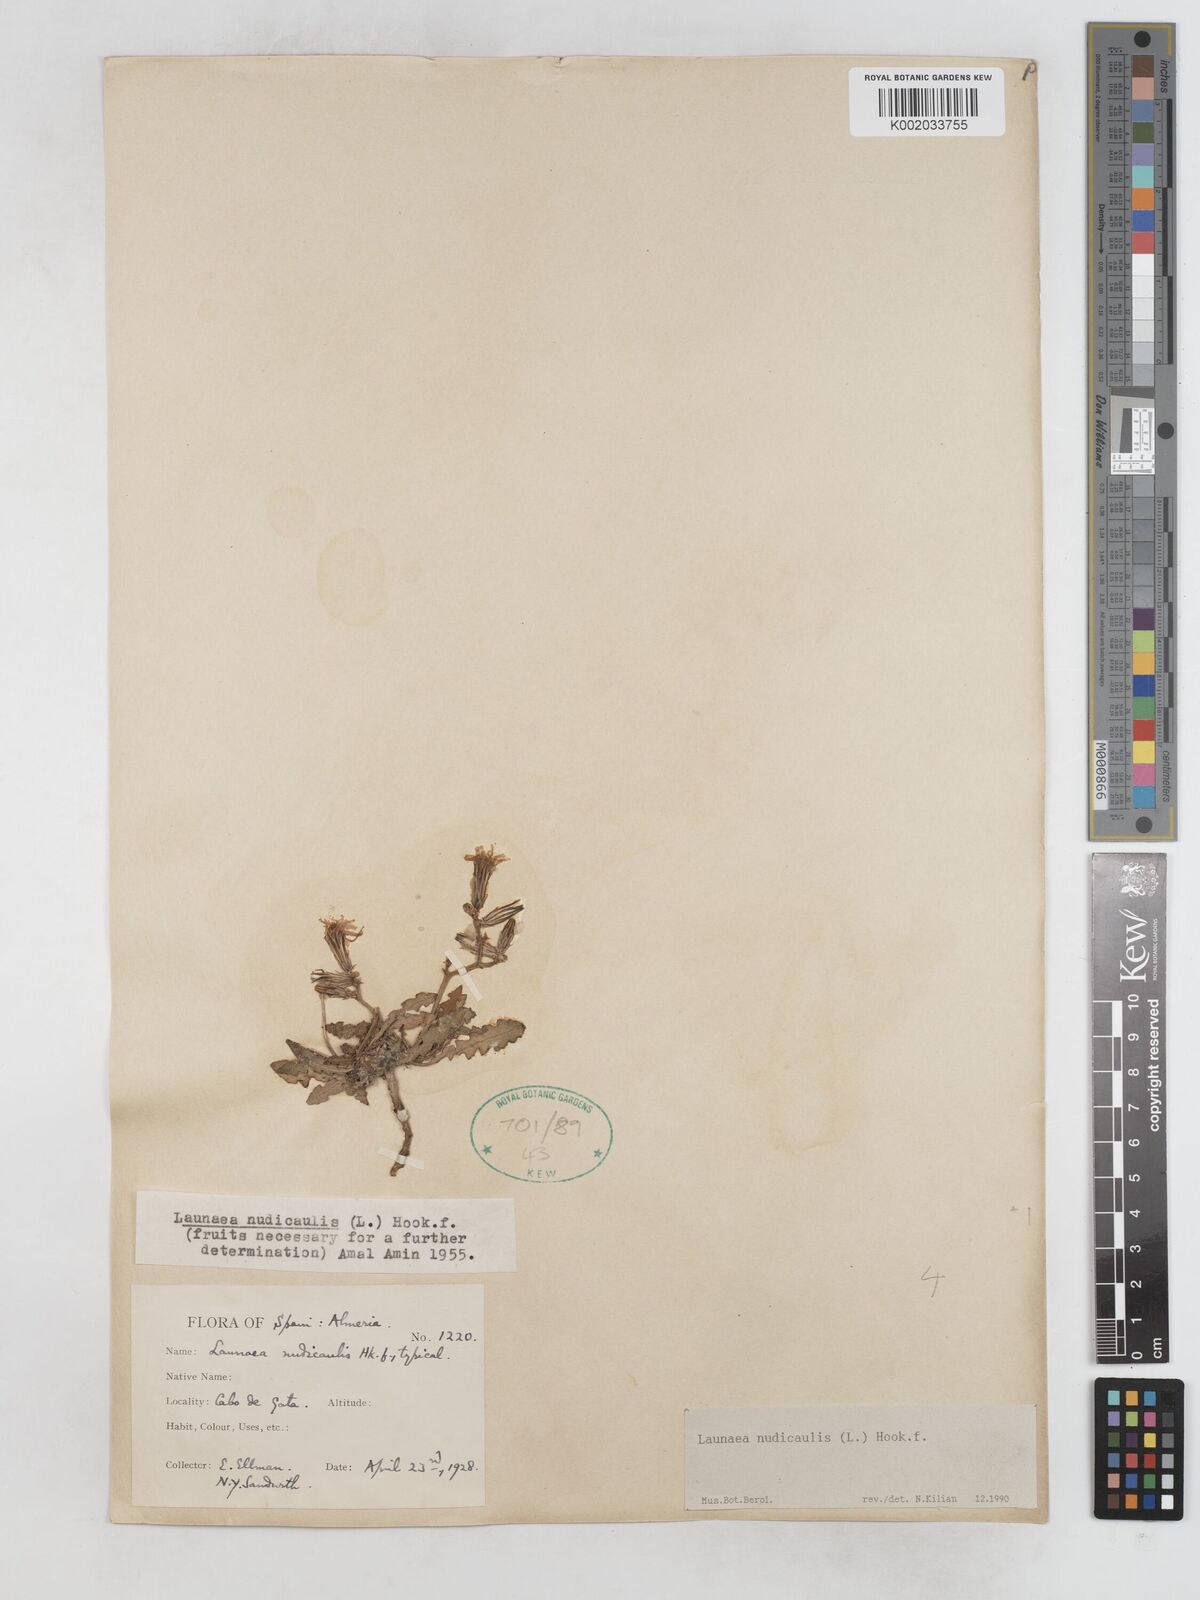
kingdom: Plantae
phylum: Tracheophyta
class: Magnoliopsida
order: Asterales
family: Asteraceae
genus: Launaea
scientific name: Launaea nudicaulis
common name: Naked launaea
